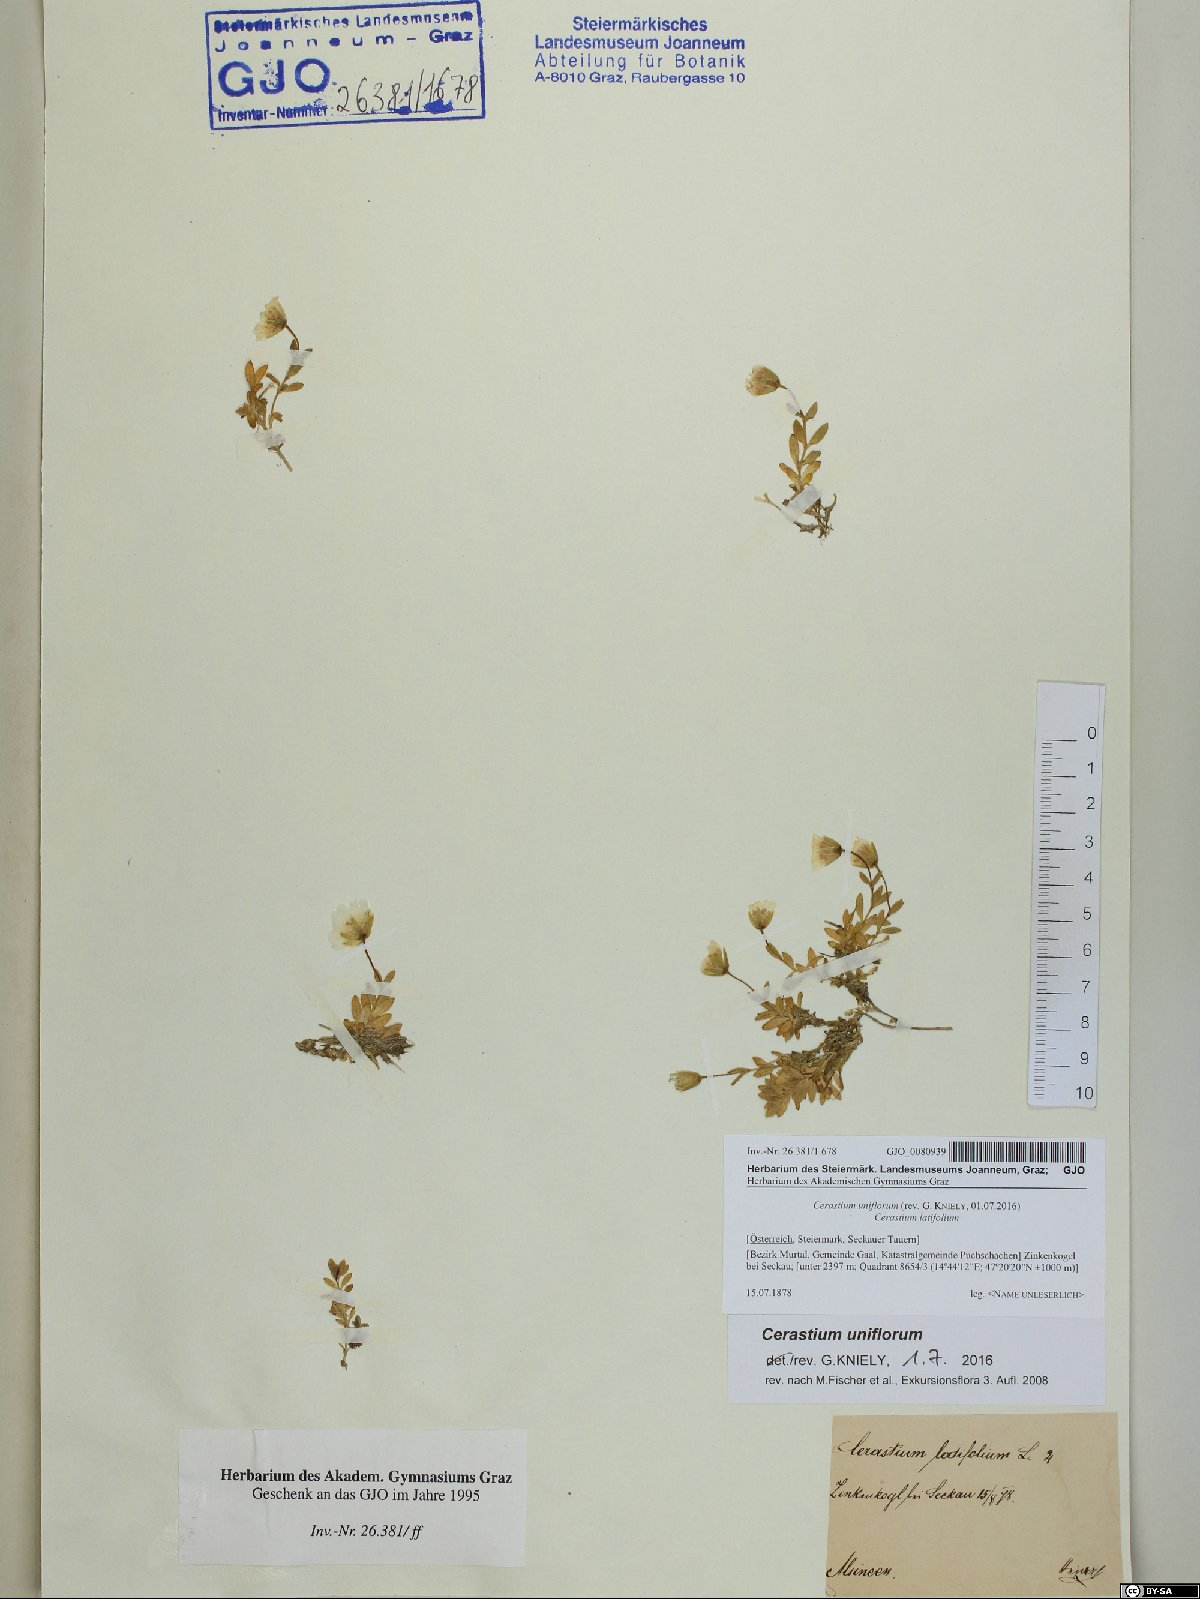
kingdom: Plantae
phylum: Tracheophyta
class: Magnoliopsida
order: Caryophyllales
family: Caryophyllaceae
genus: Cerastium
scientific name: Cerastium uniflorum
